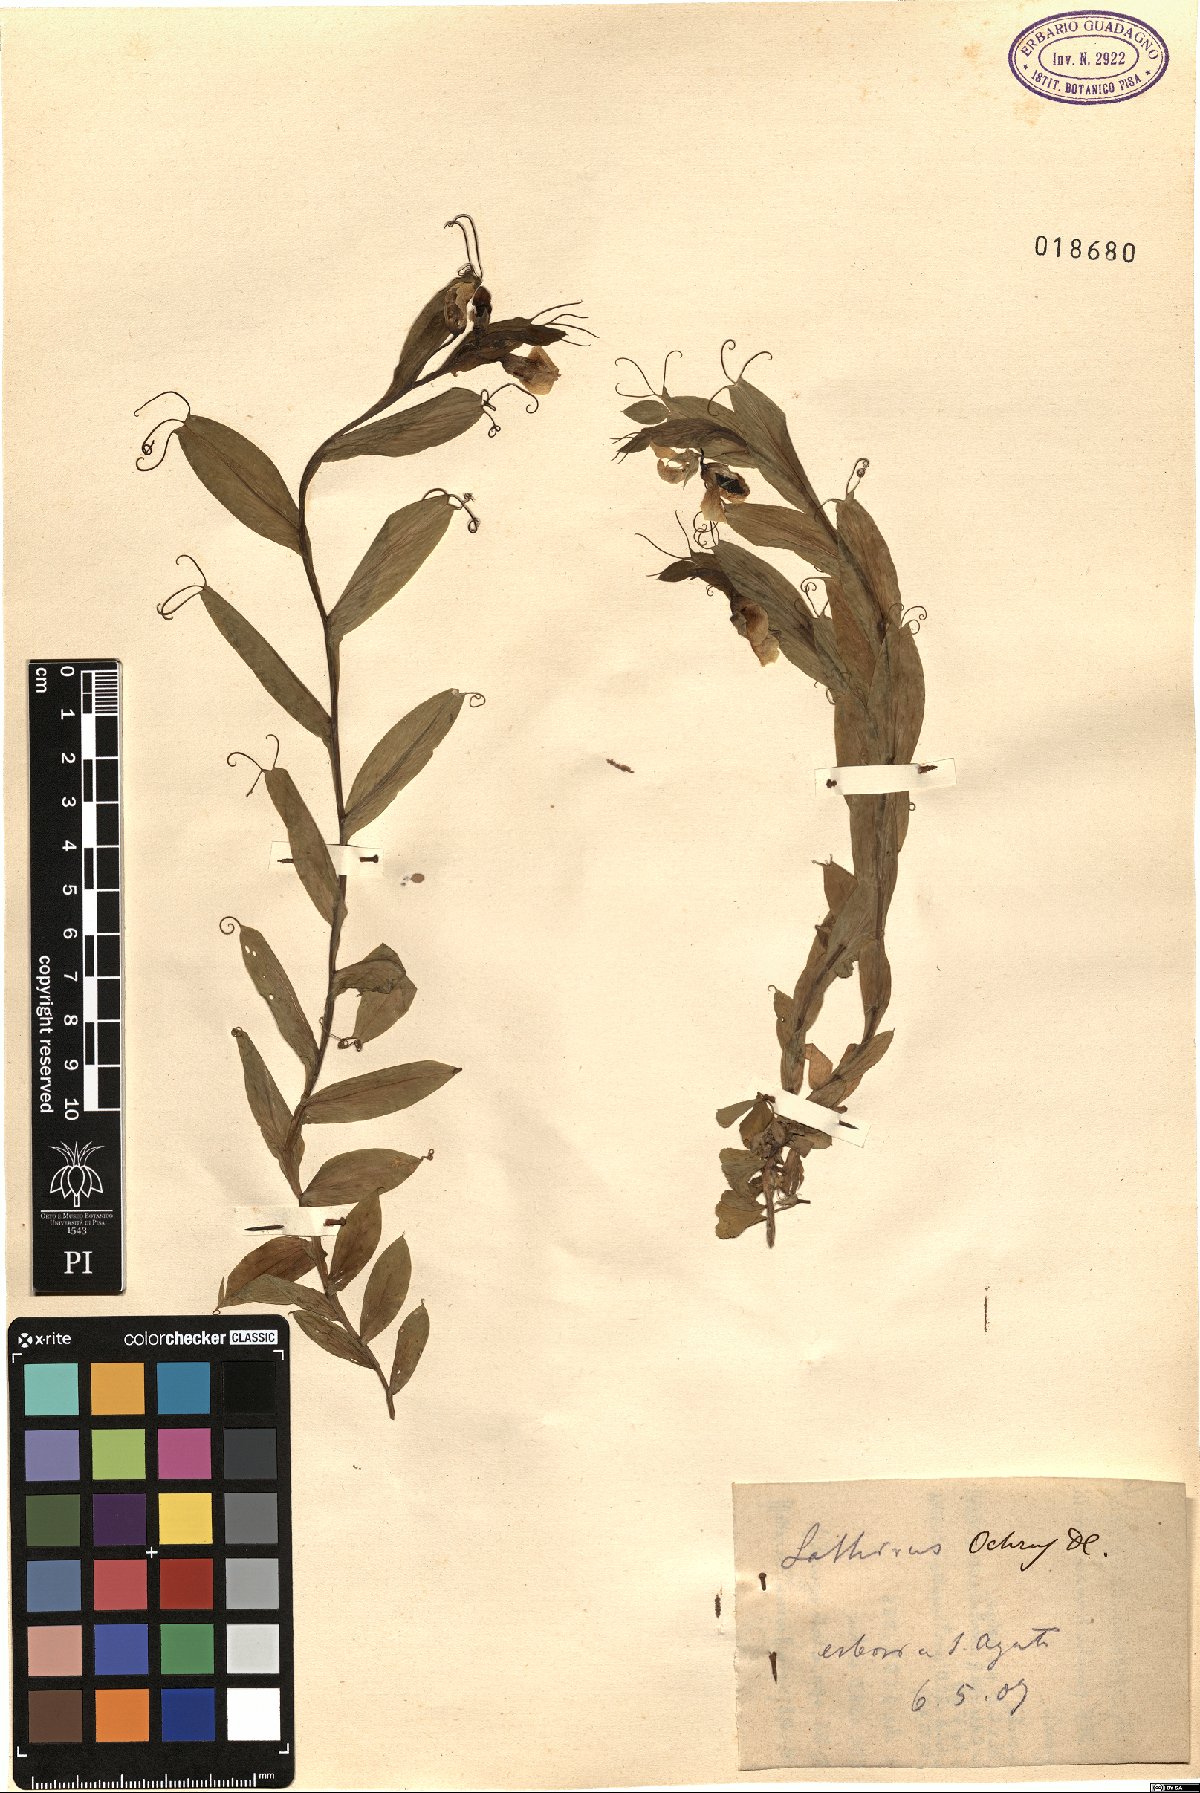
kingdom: Plantae
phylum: Tracheophyta
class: Magnoliopsida
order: Fabales
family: Fabaceae
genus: Lathyrus
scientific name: Lathyrus ochrus
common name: Winged vetchling
